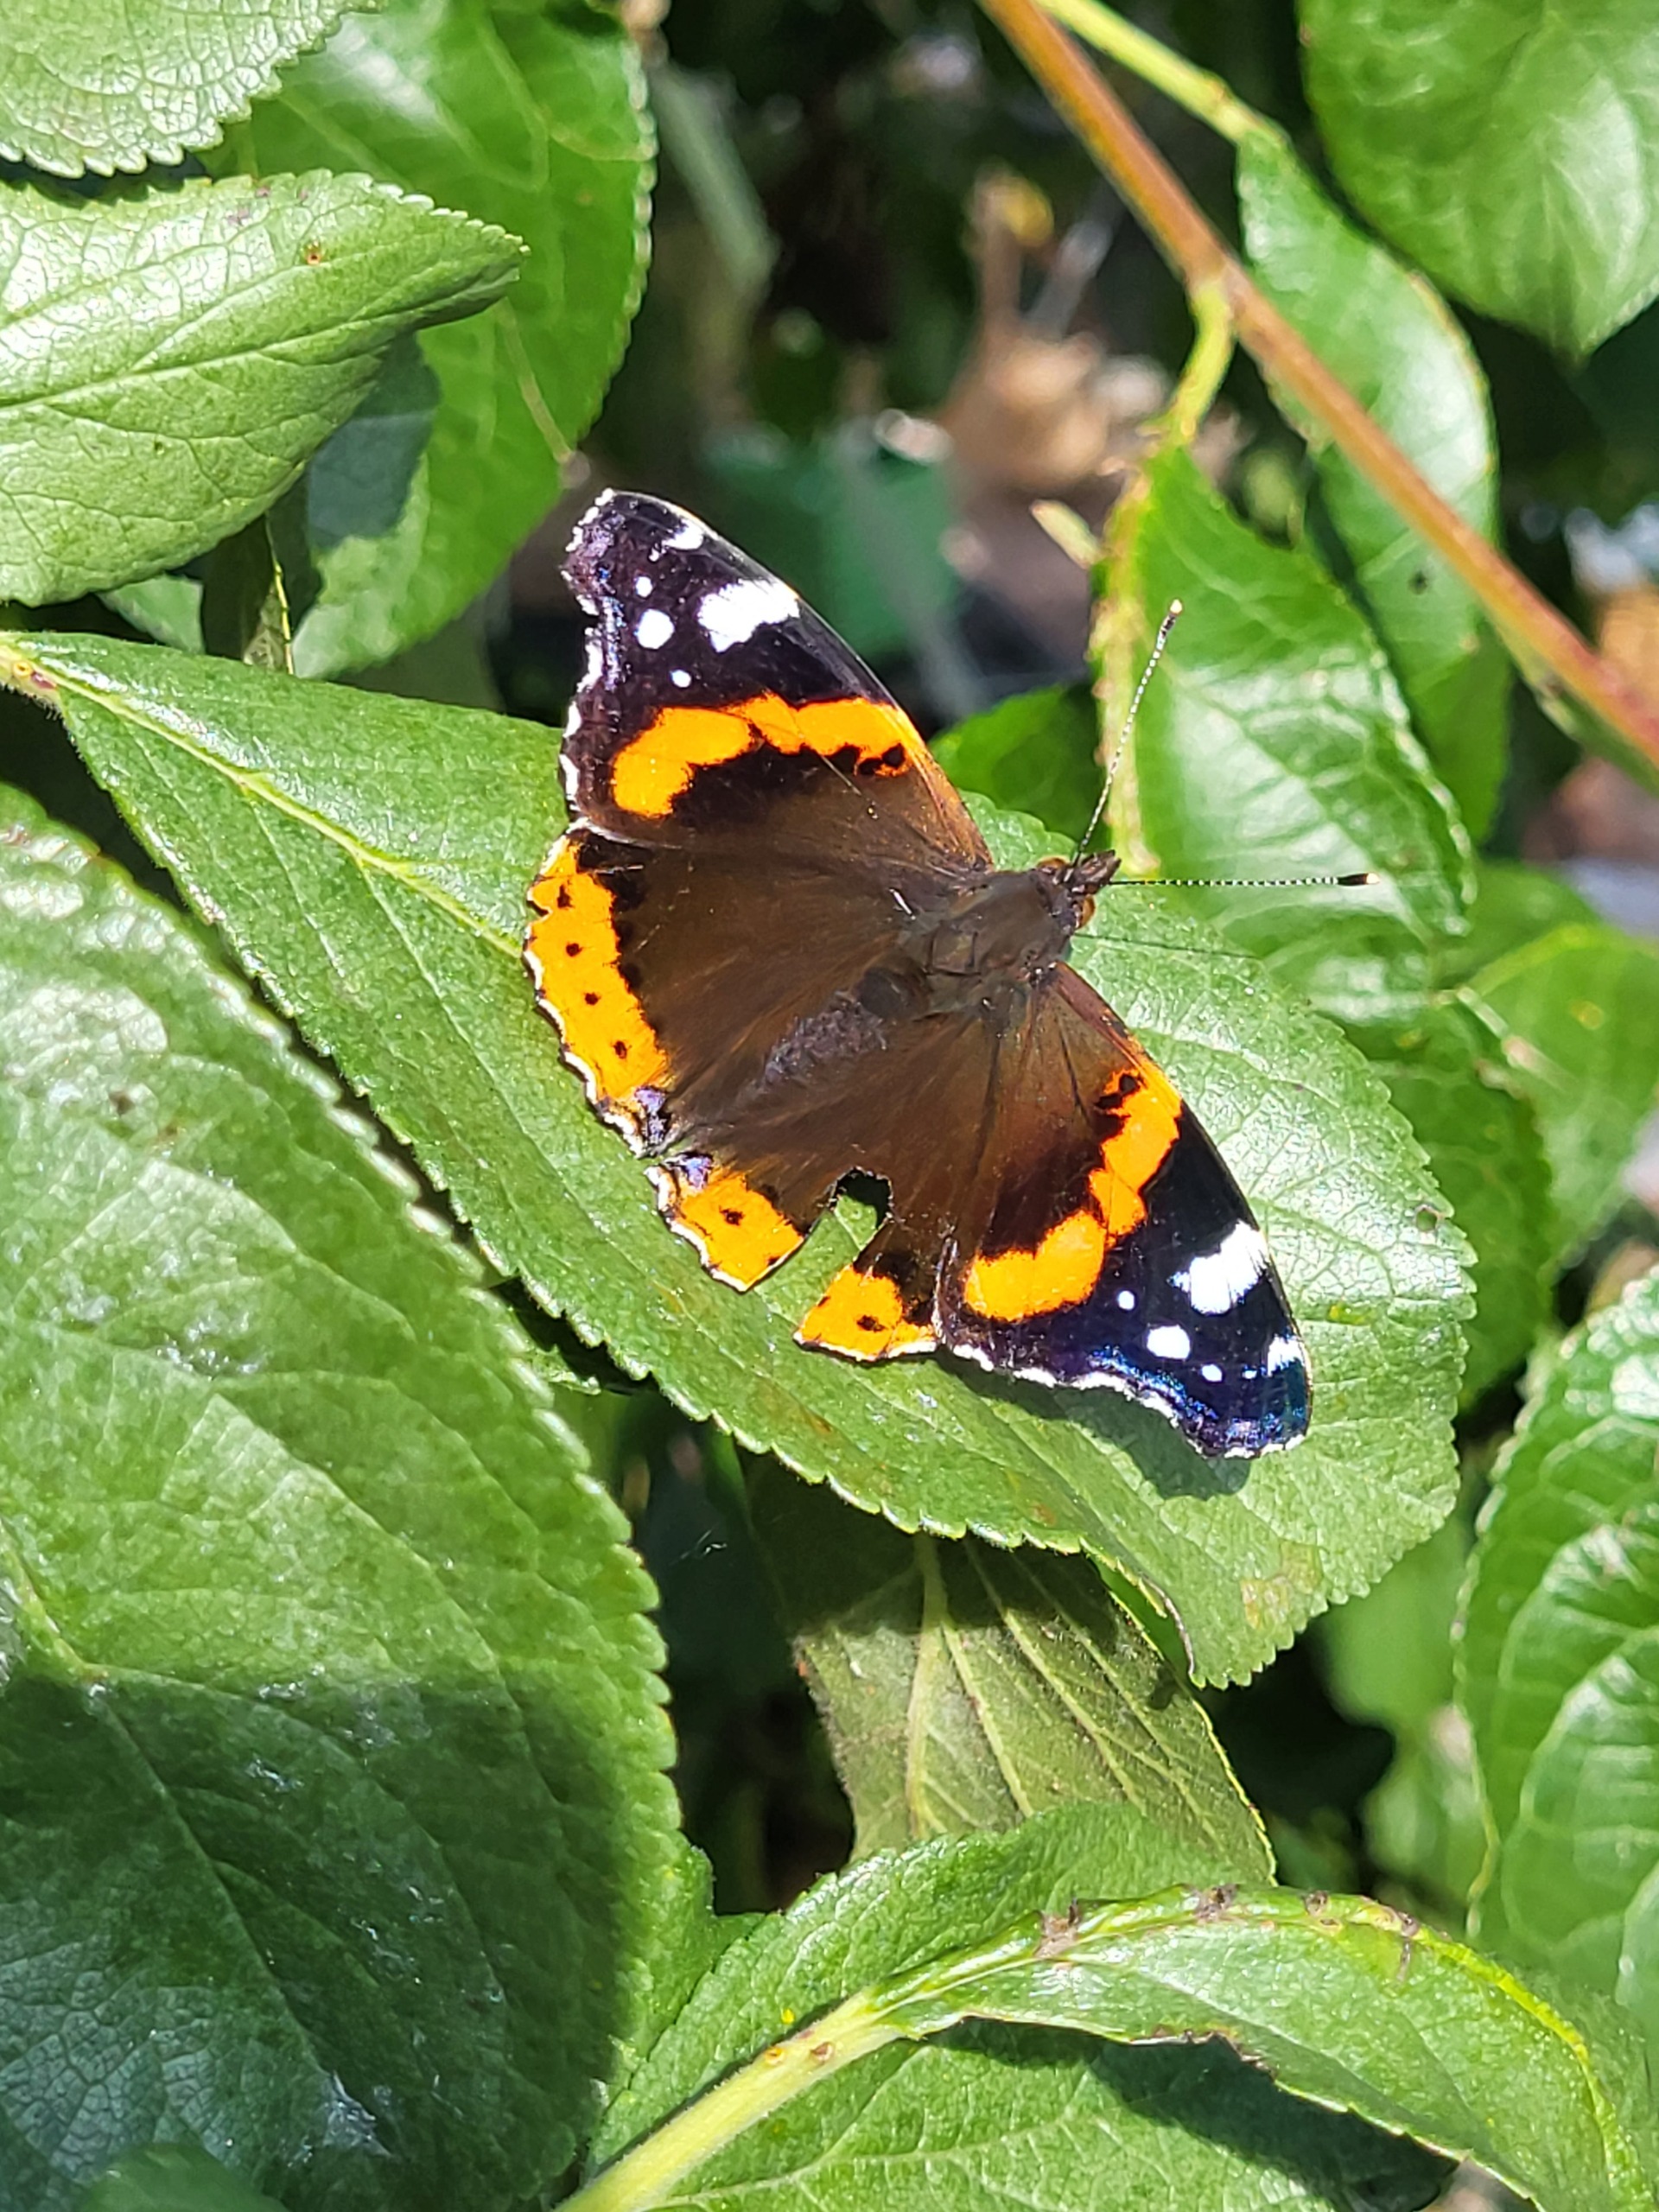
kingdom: Animalia
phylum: Arthropoda
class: Insecta
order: Lepidoptera
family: Nymphalidae
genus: Vanessa
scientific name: Vanessa atalanta
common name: Admiral
